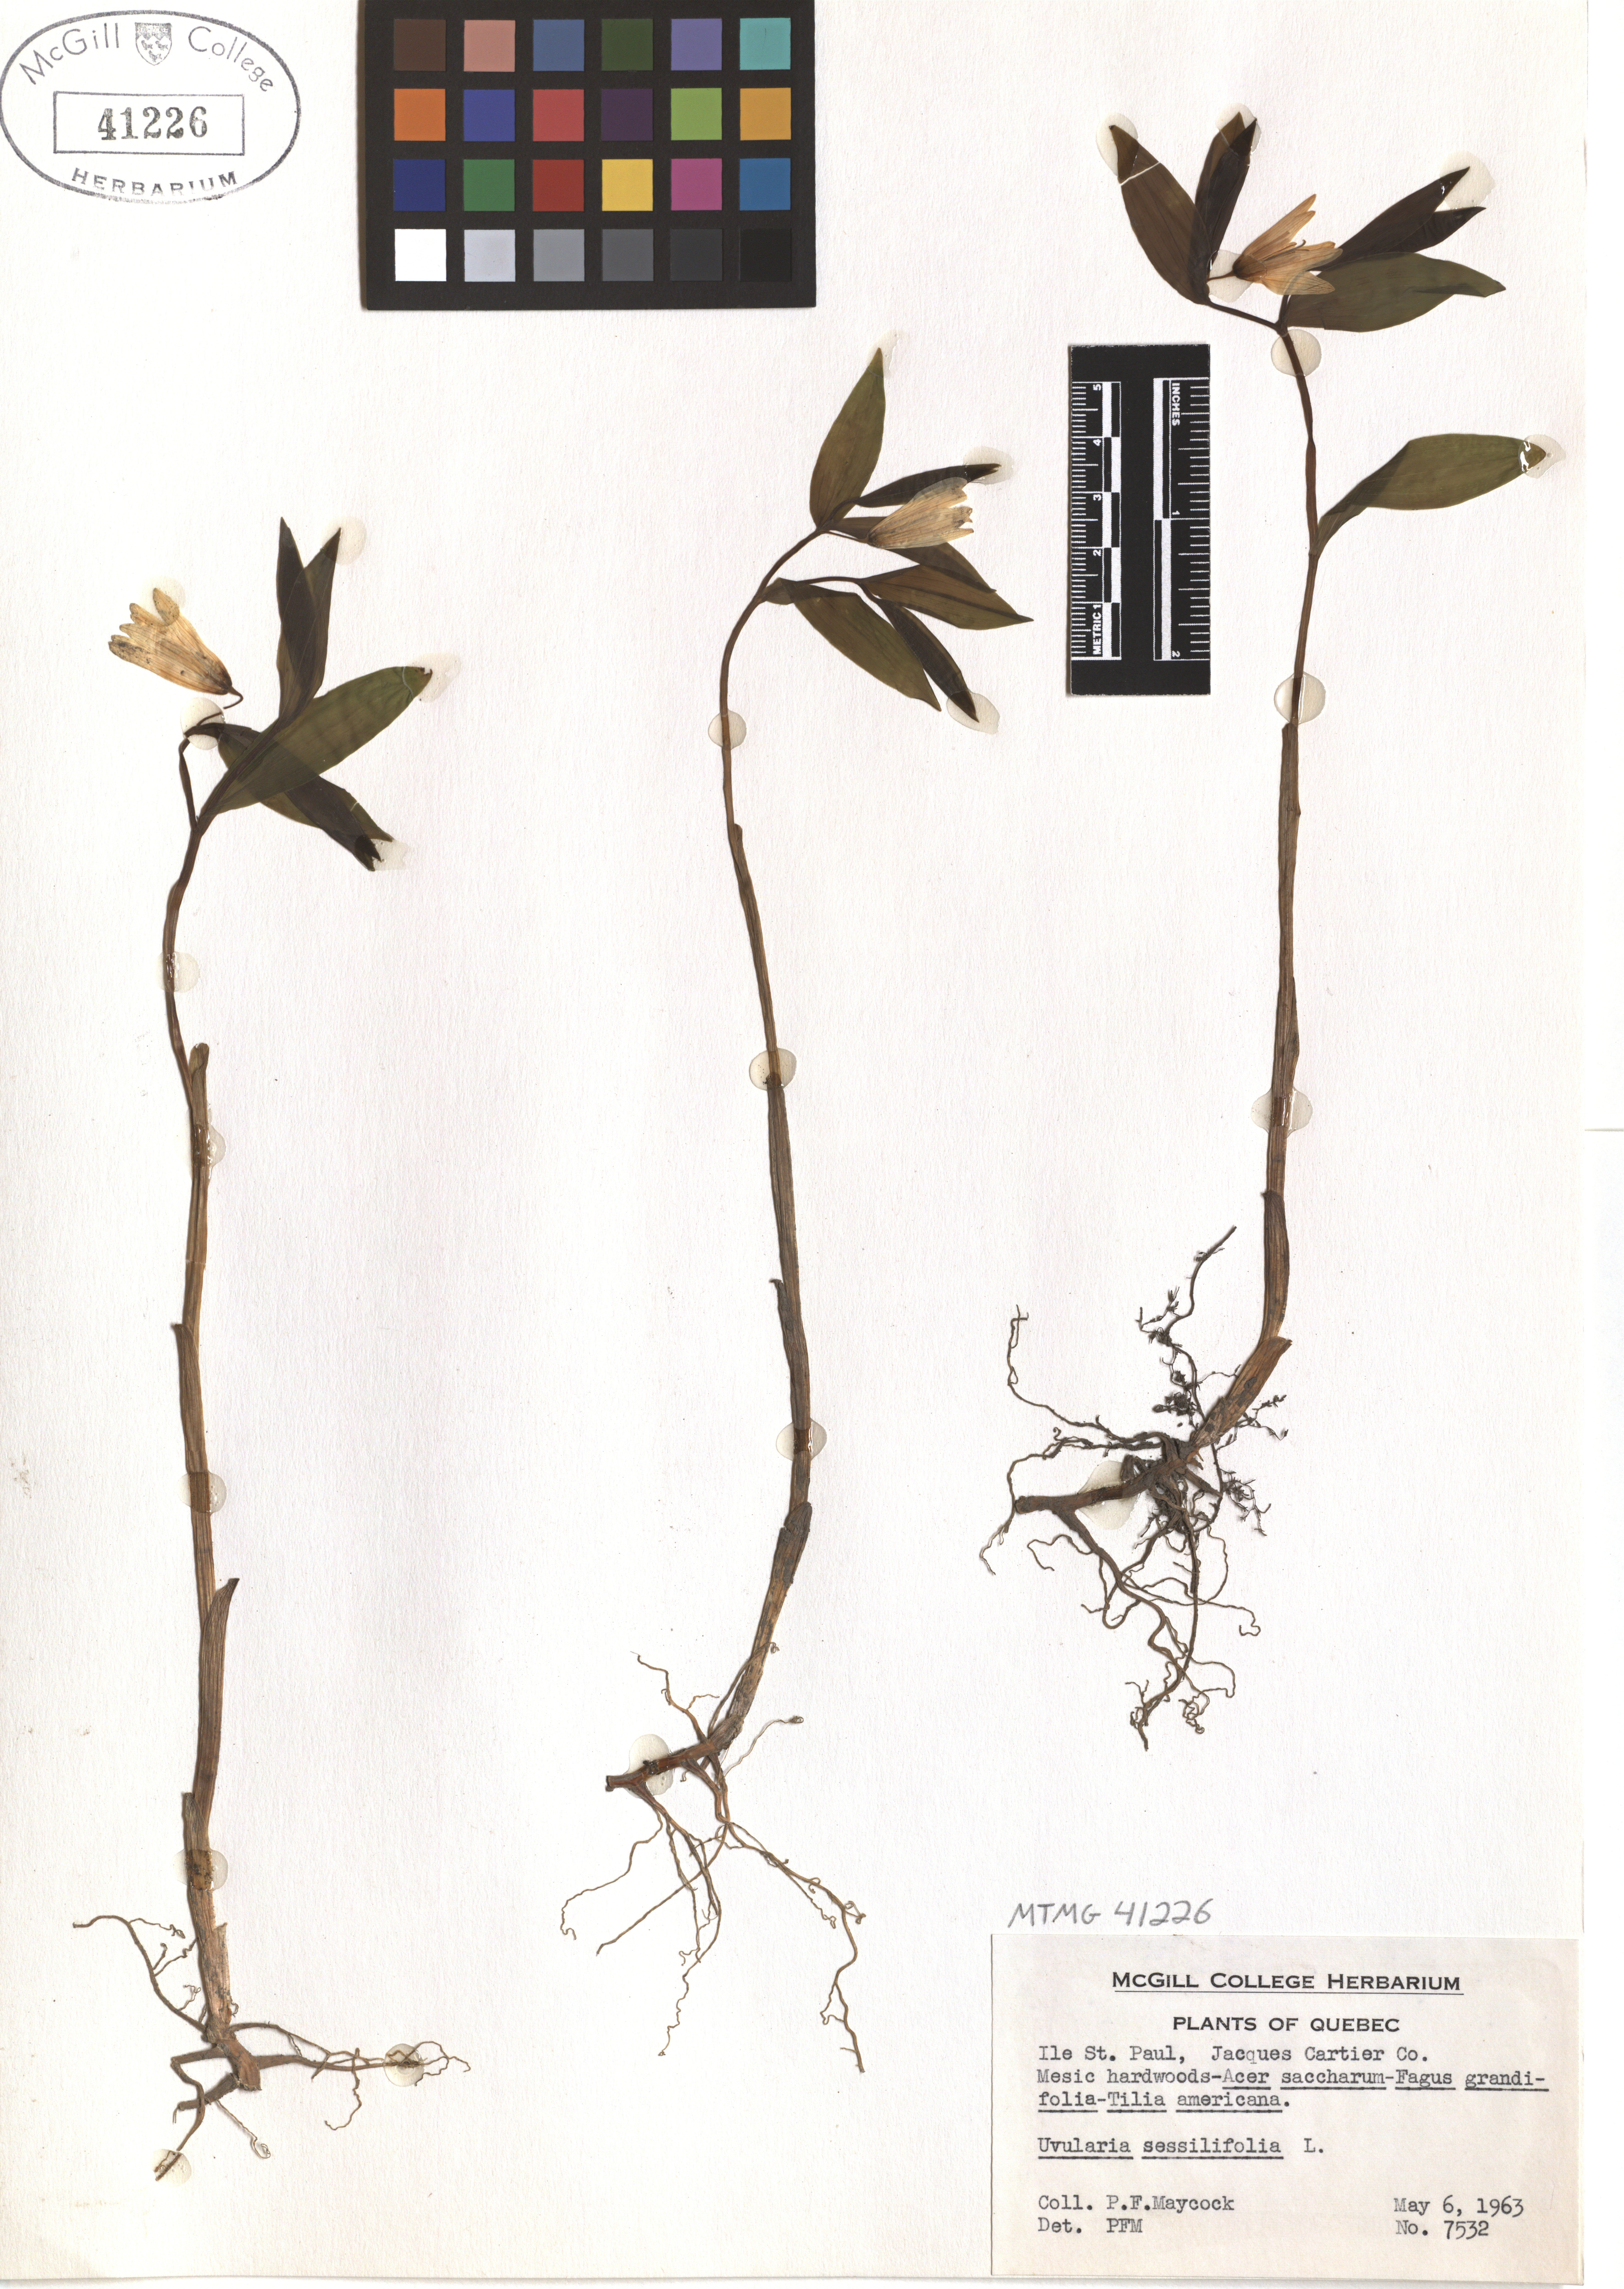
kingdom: Plantae
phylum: Tracheophyta
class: Liliopsida
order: Liliales
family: Colchicaceae
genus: Uvularia
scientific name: Uvularia sessilifolia
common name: Straw-lily
